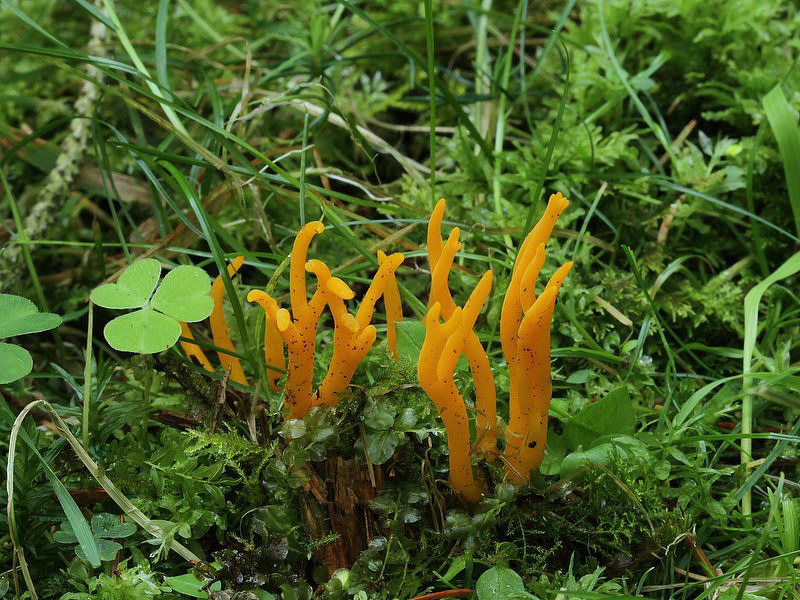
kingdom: Fungi
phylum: Basidiomycota
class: Dacrymycetes
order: Dacrymycetales
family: Dacrymycetaceae
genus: Calocera
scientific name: Calocera viscosa
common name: almindelig guldgaffel
